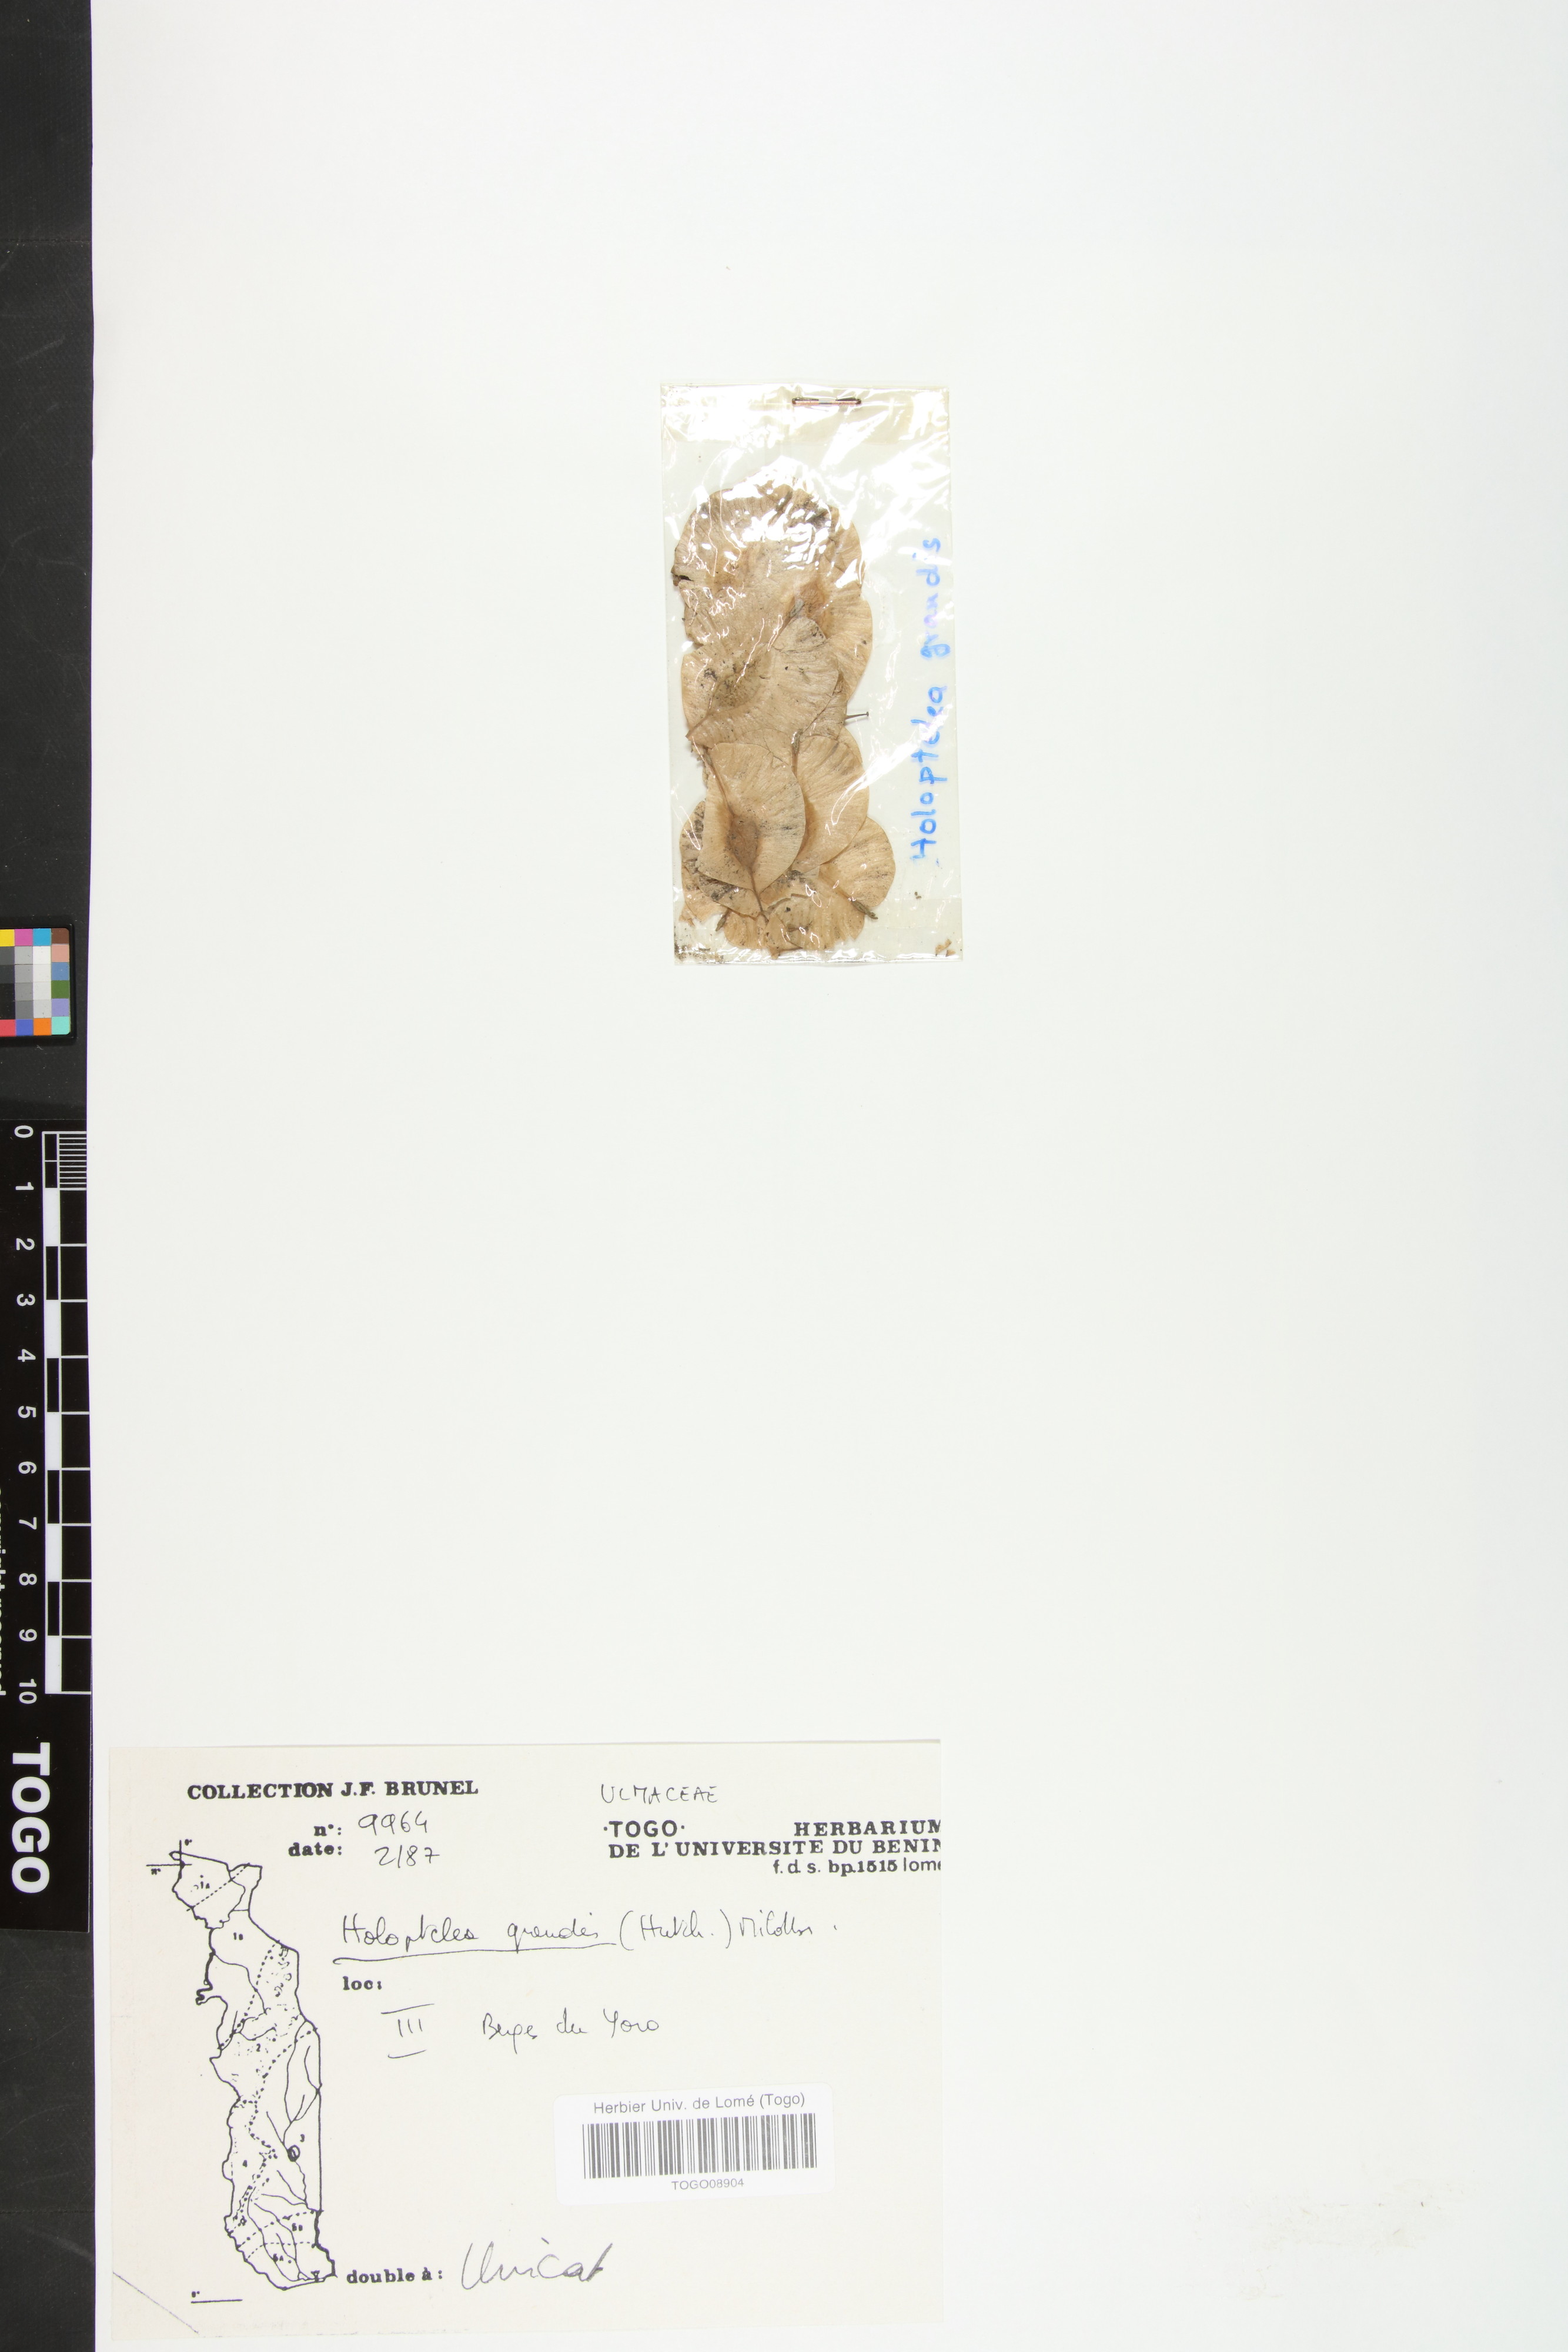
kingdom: Plantae
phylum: Tracheophyta
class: Magnoliopsida
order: Rosales
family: Ulmaceae
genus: Holoptelea
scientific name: Holoptelea grandis
